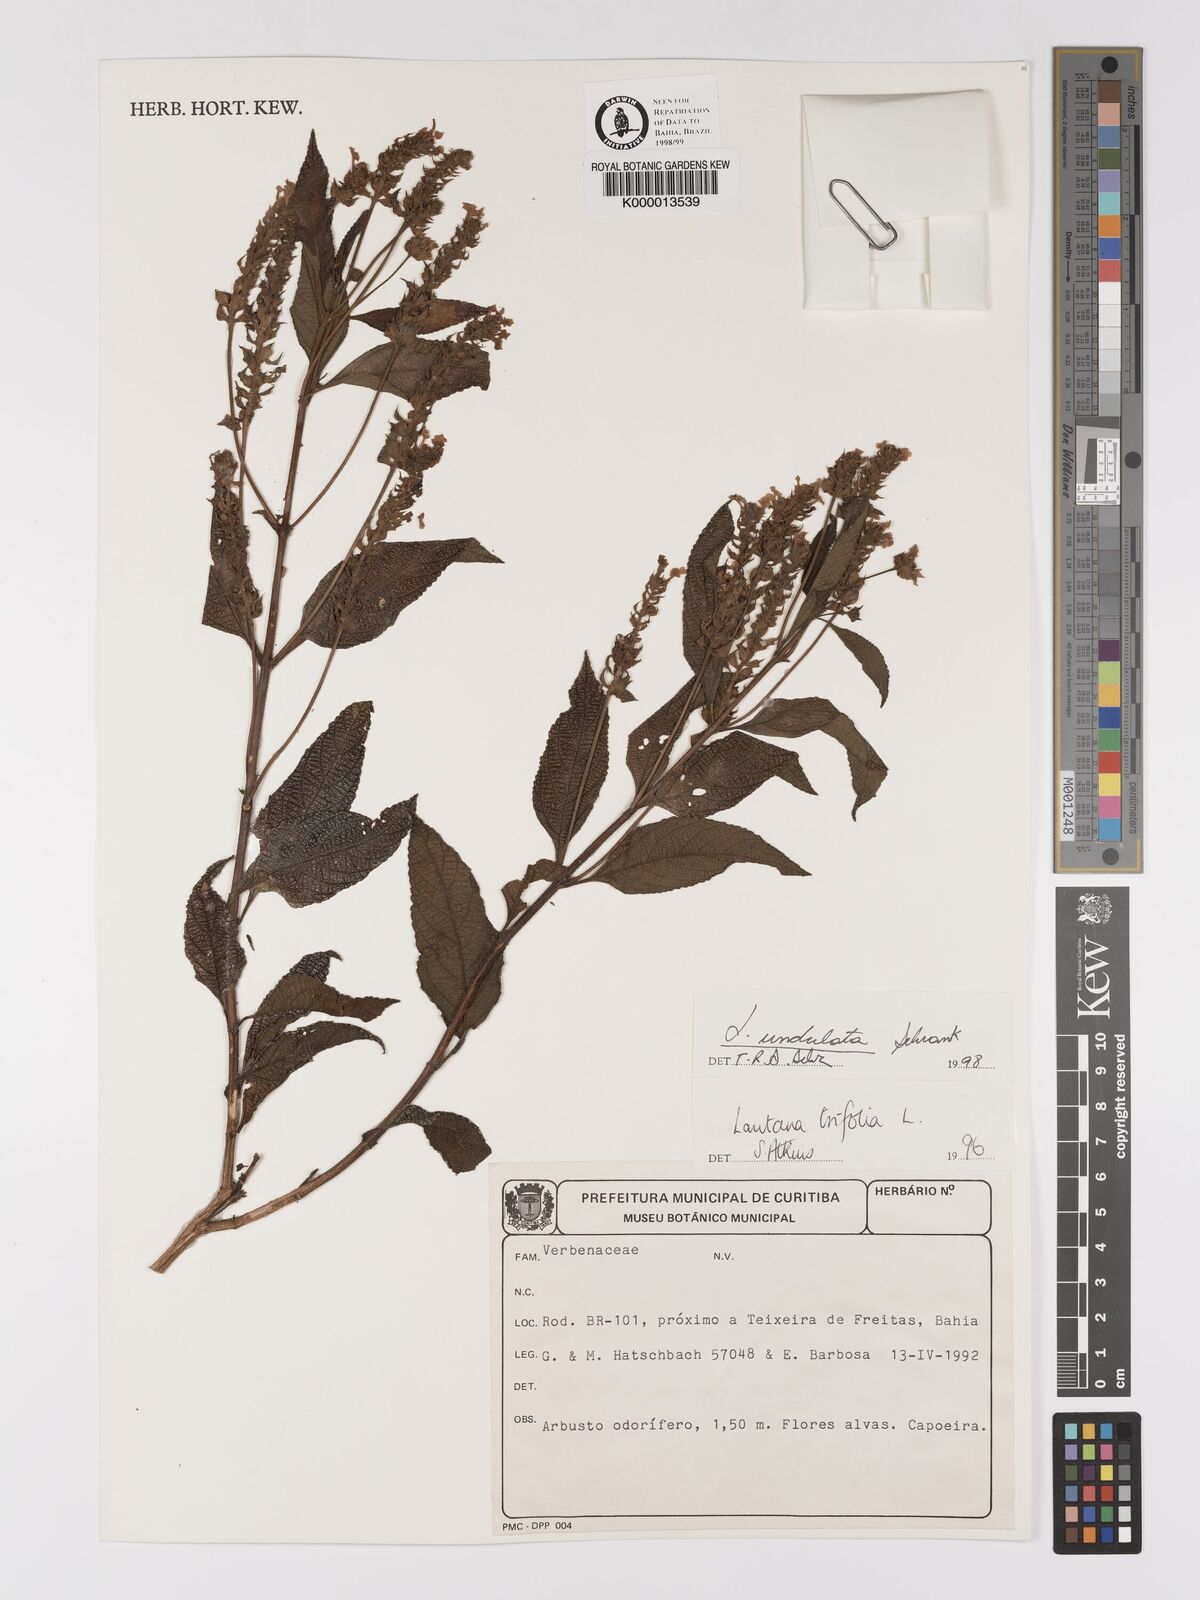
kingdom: Plantae
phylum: Tracheophyta
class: Magnoliopsida
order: Lamiales
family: Verbenaceae
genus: Lantana
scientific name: Lantana undulata
